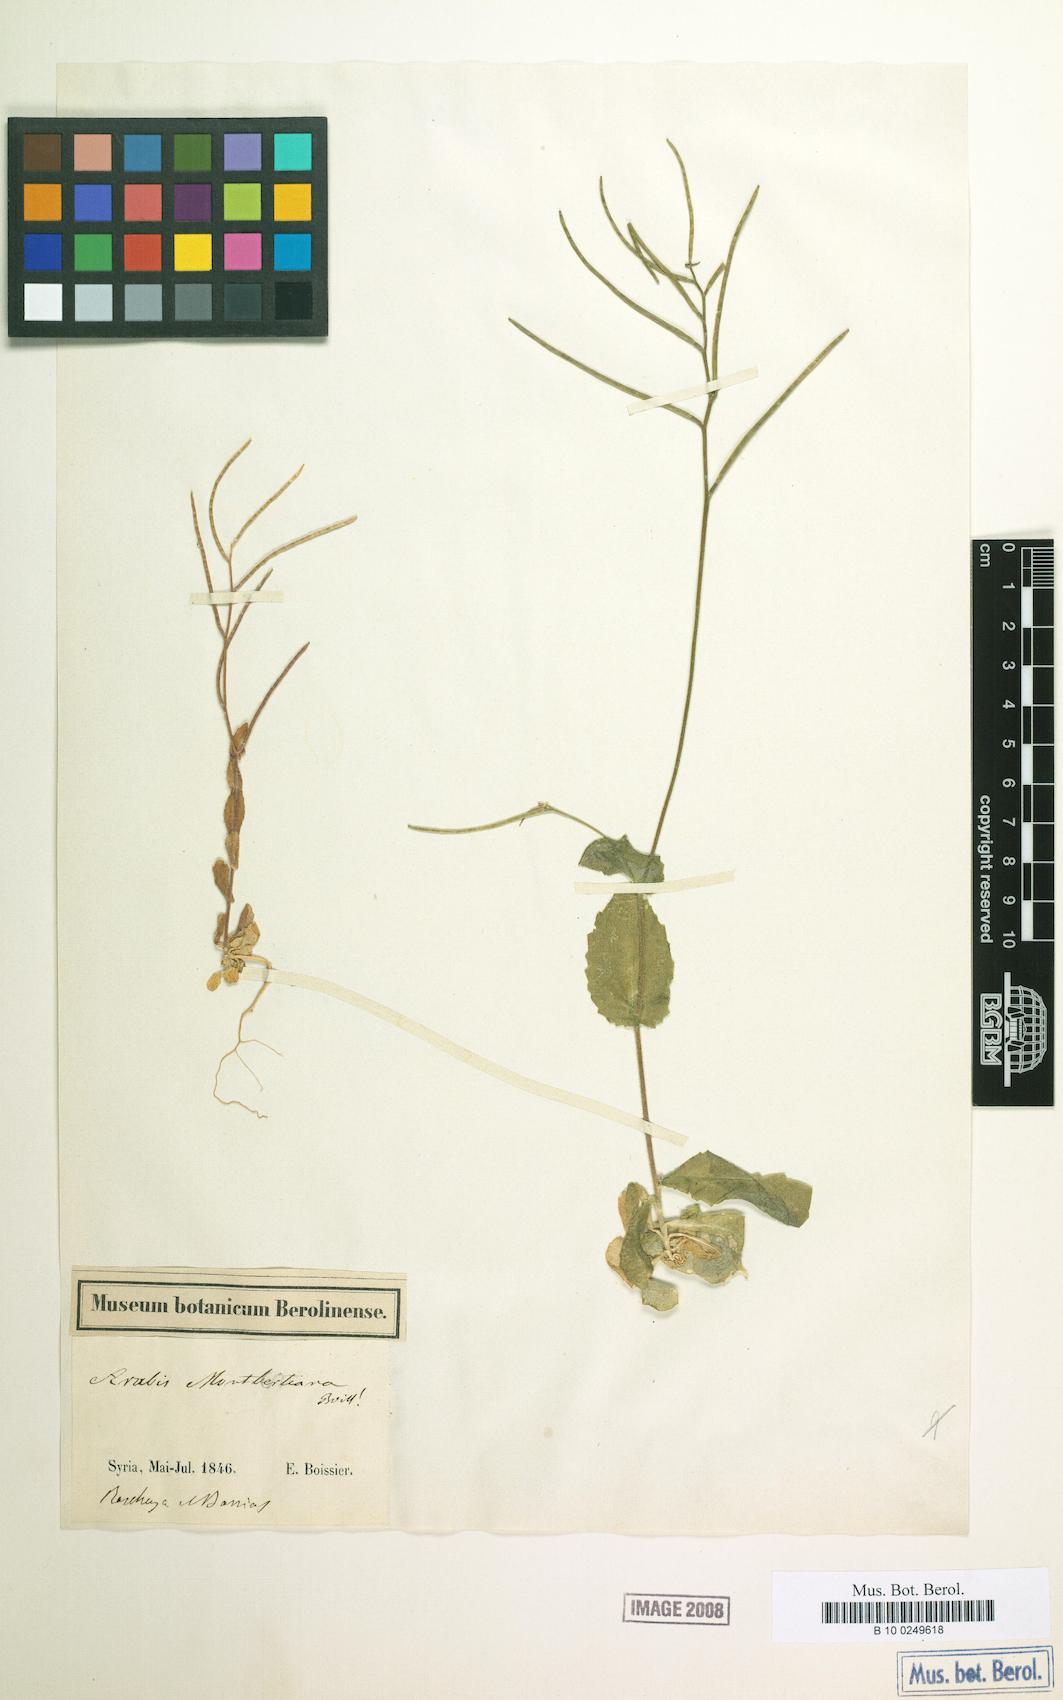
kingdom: Plantae
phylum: Tracheophyta
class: Magnoliopsida
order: Brassicales
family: Brassicaceae
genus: Arabis
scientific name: Arabis
